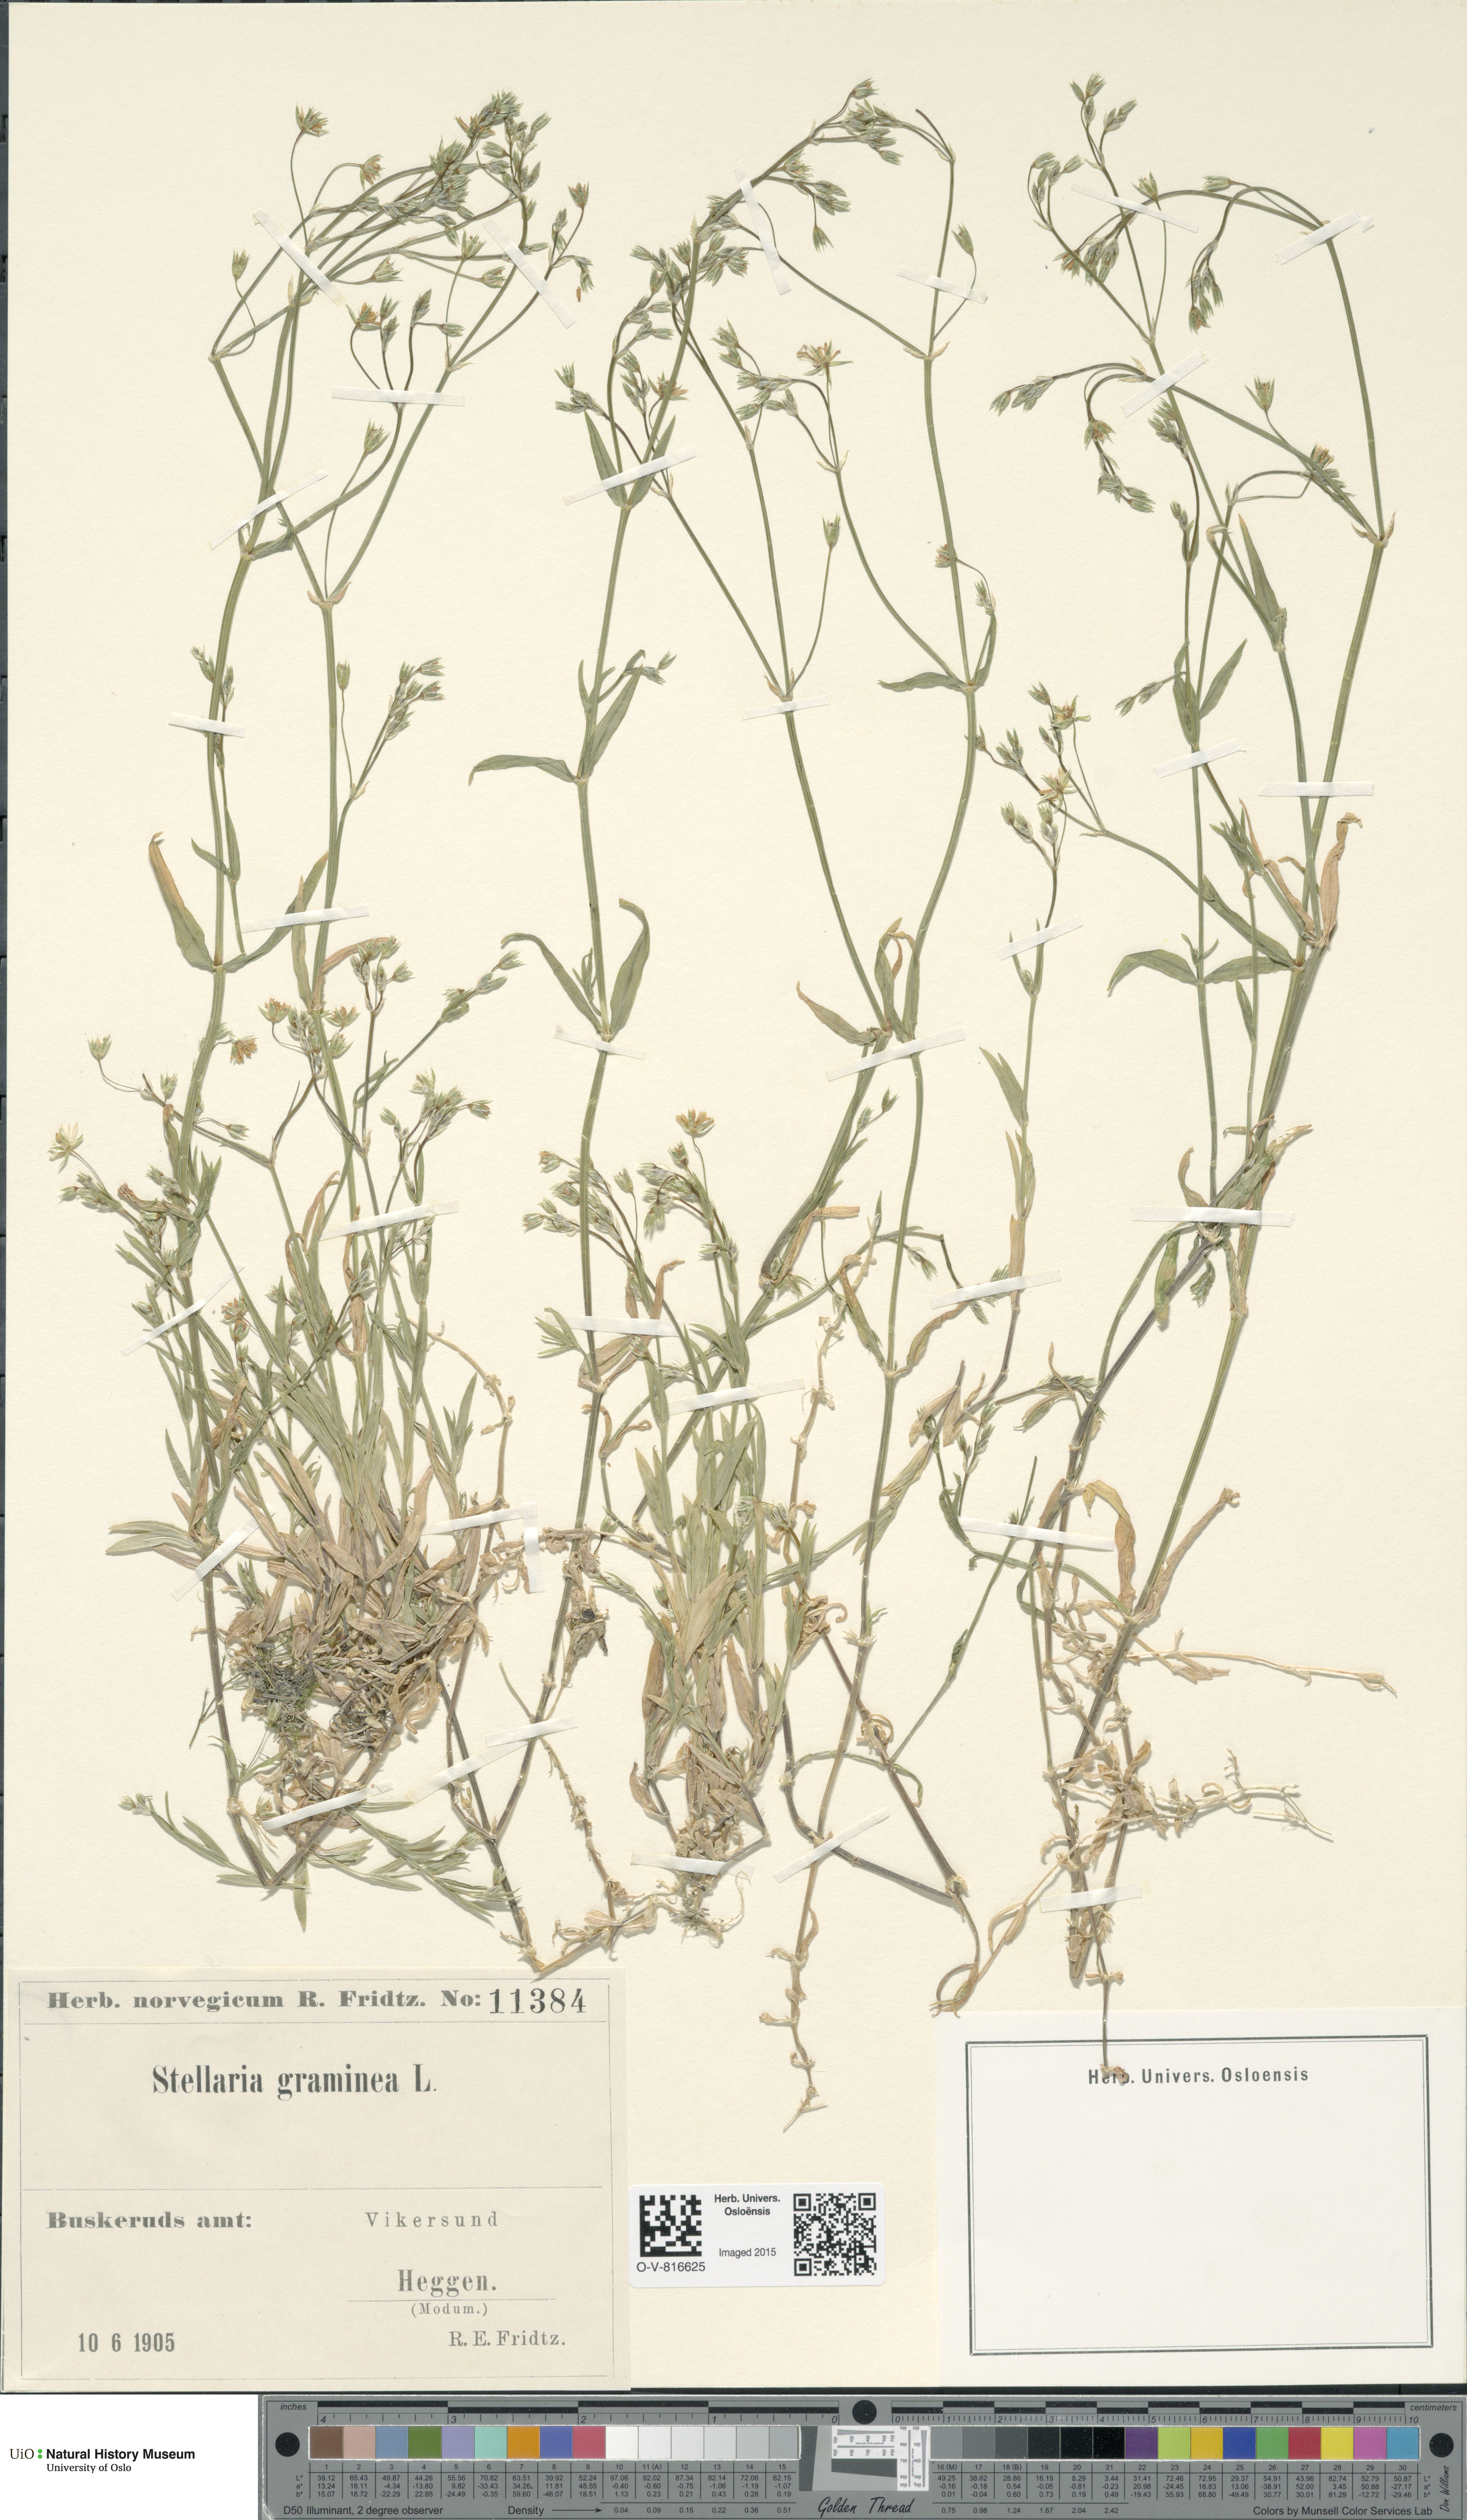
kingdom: Plantae
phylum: Tracheophyta
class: Magnoliopsida
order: Caryophyllales
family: Caryophyllaceae
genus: Stellaria
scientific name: Stellaria graminea
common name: Grass-like starwort
